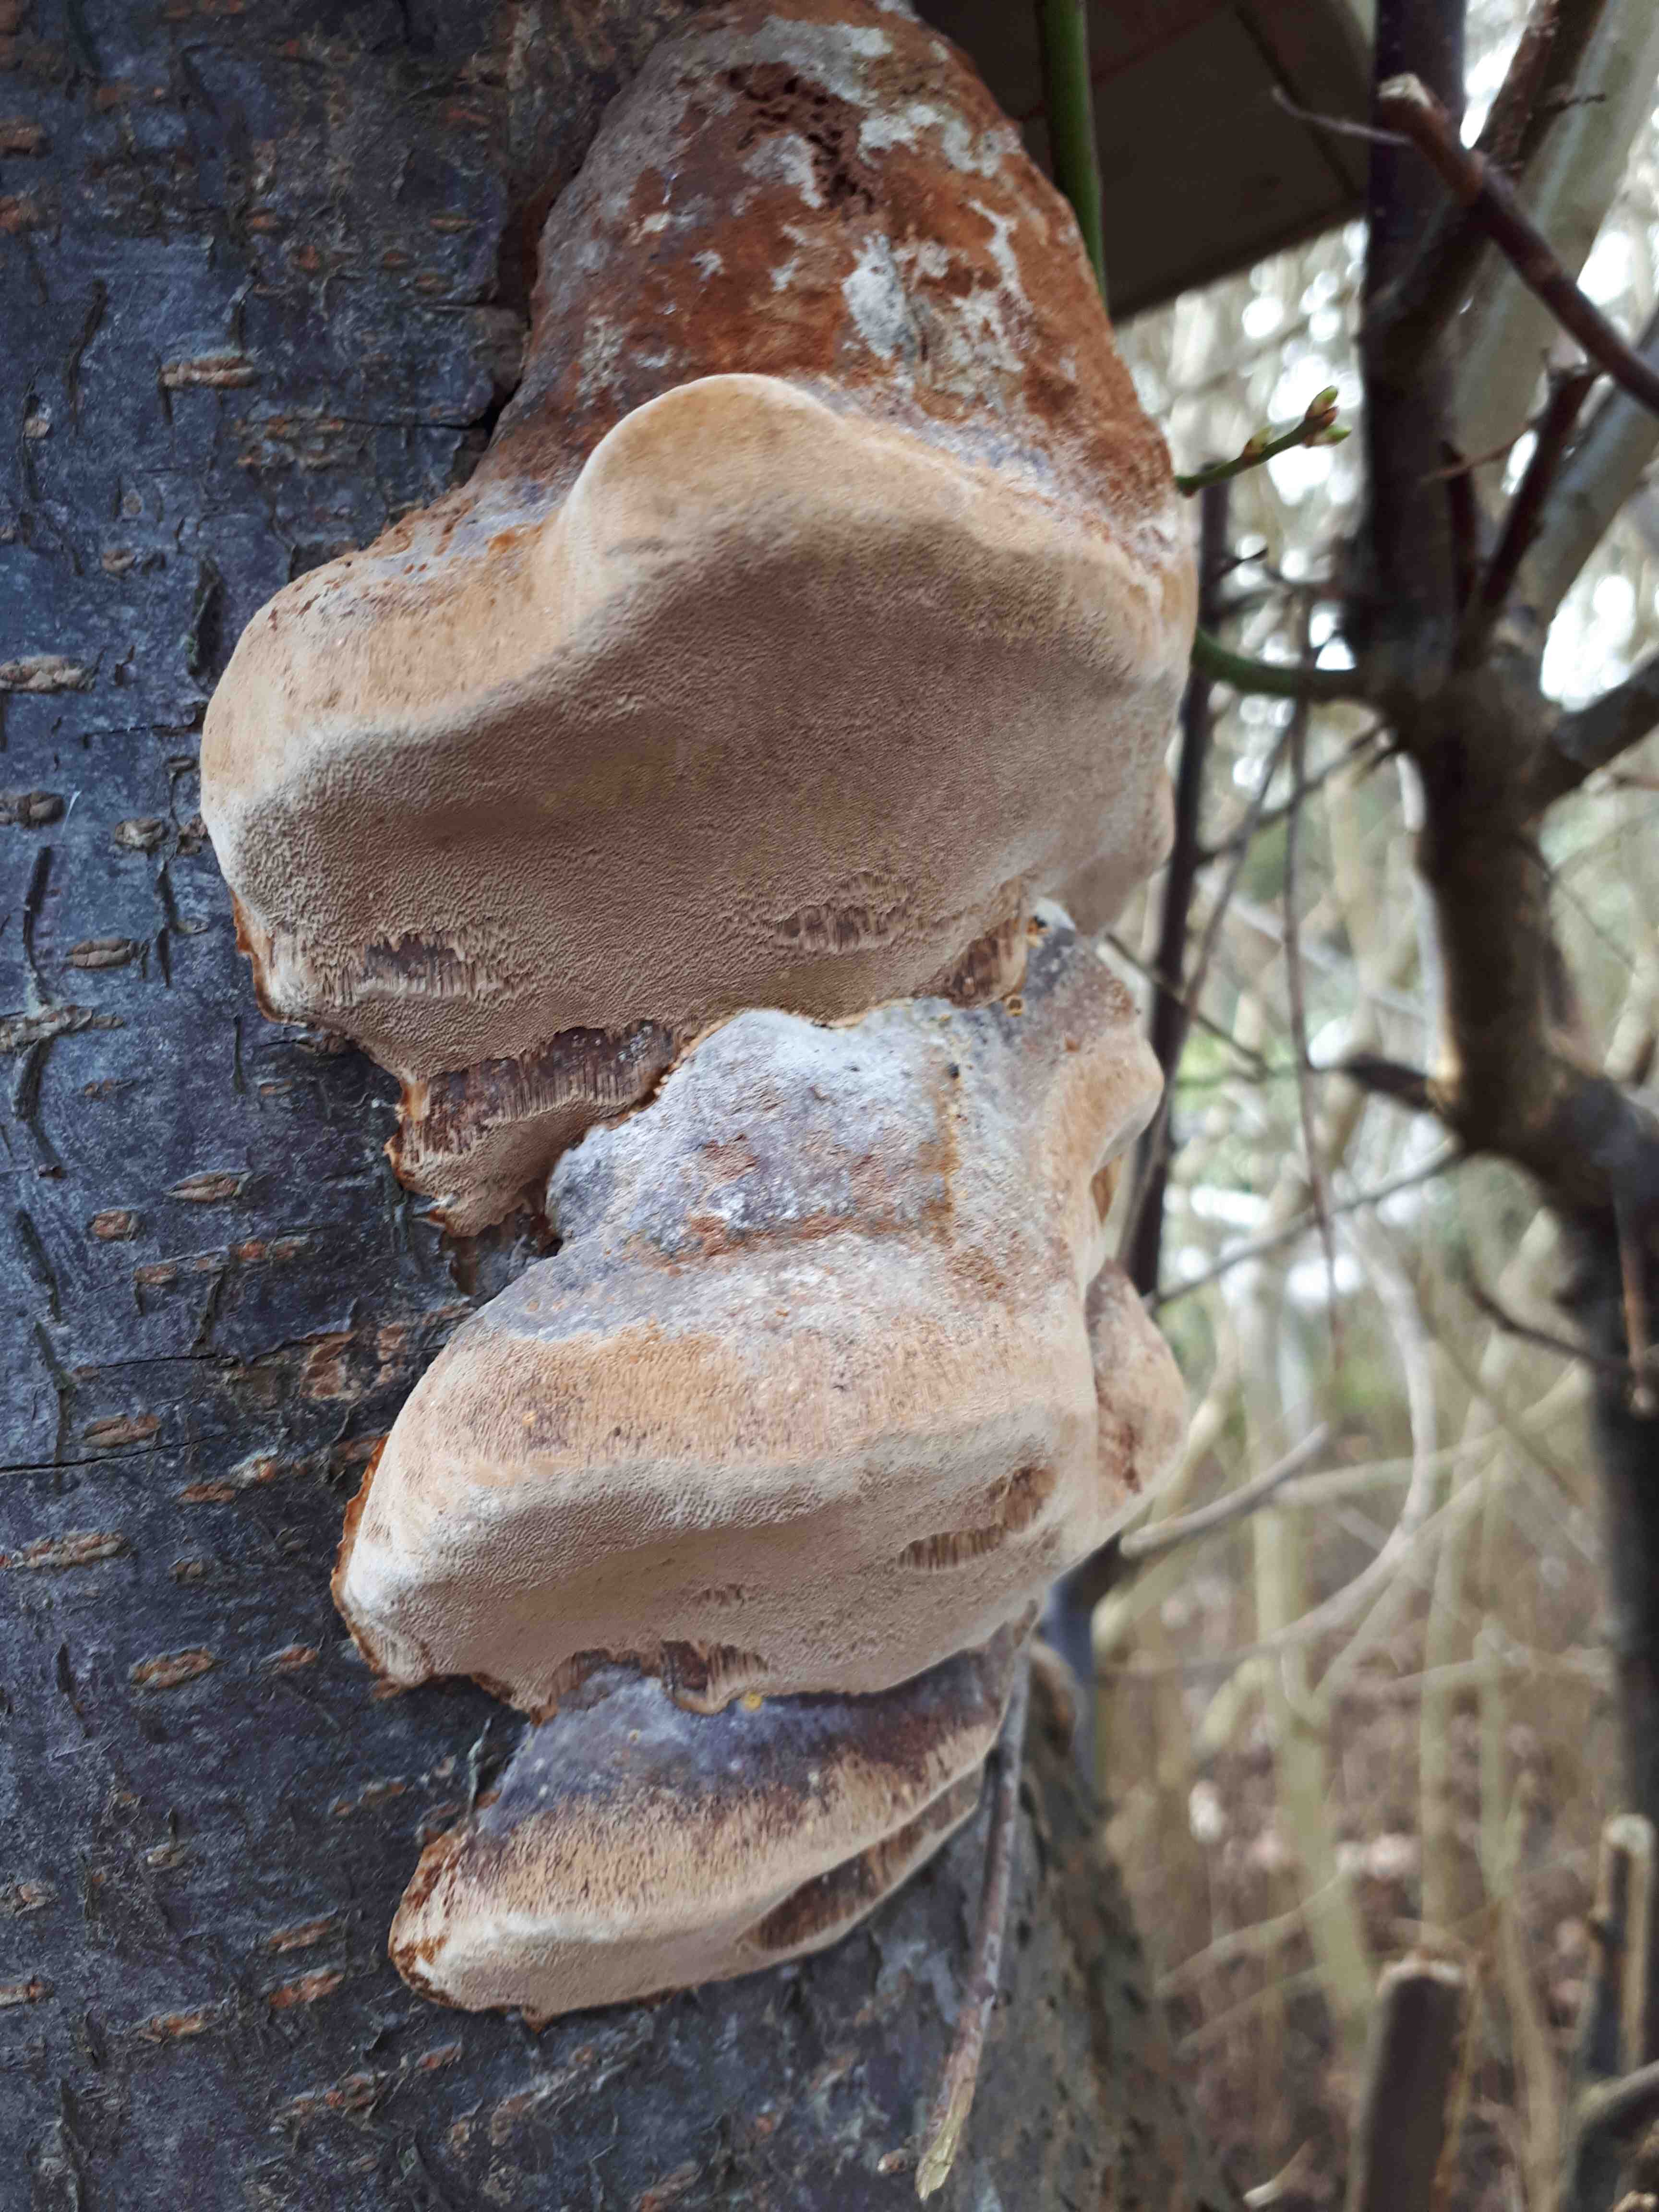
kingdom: Fungi
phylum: Basidiomycota
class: Agaricomycetes
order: Hymenochaetales
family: Hymenochaetaceae
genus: Phellinus
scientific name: Phellinus pomaceus
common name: blomme-ildporesvamp
